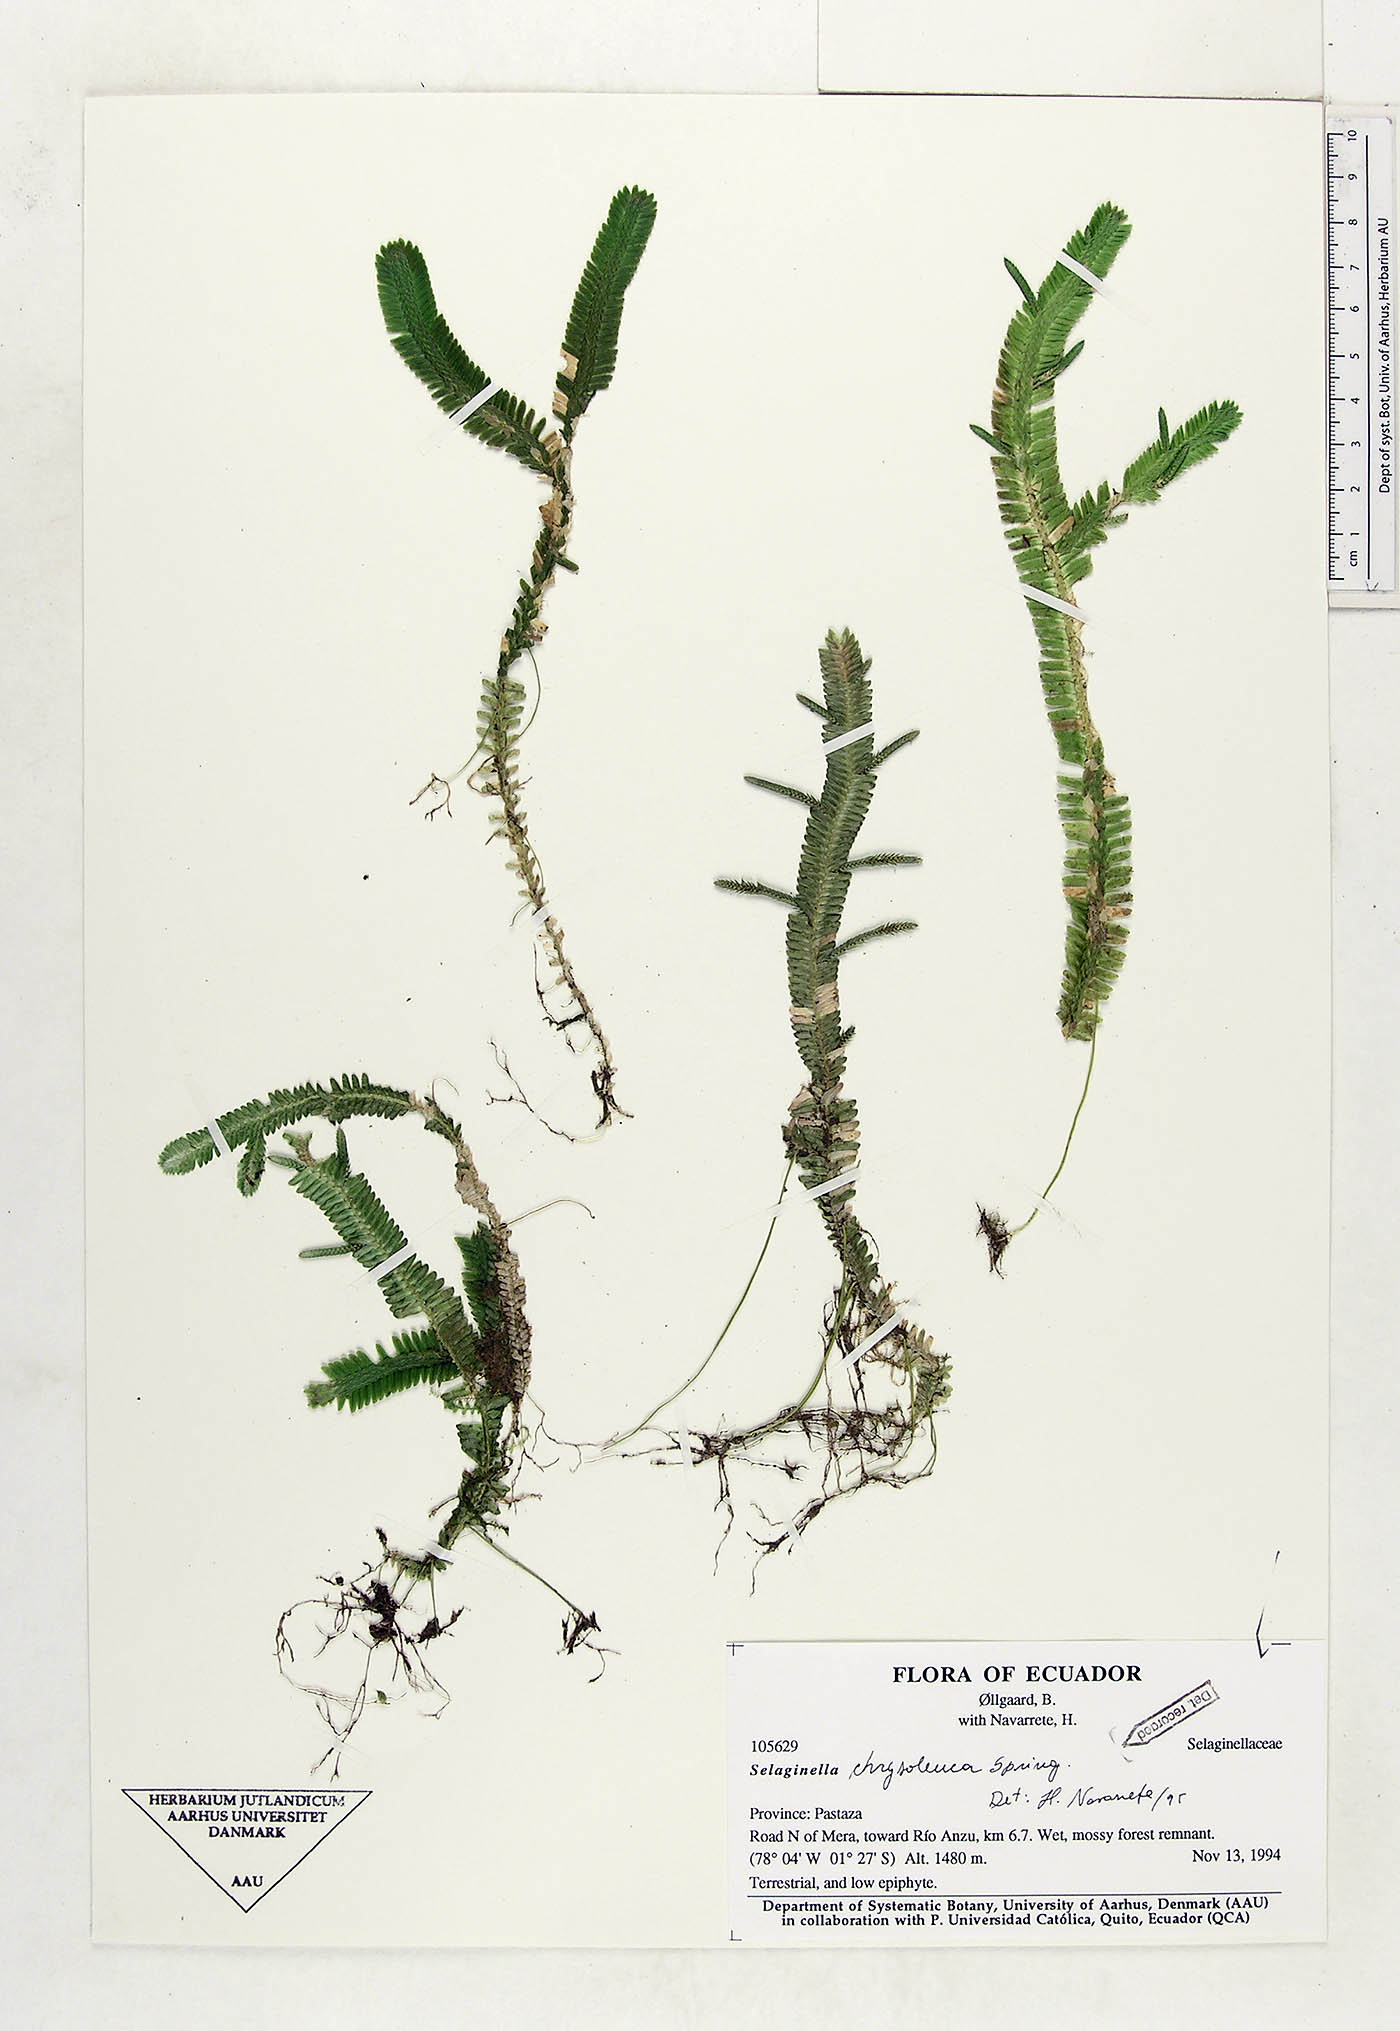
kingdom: Plantae
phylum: Tracheophyta
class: Lycopodiopsida
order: Selaginellales
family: Selaginellaceae
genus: Selaginella
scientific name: Selaginella chrysoleuca
